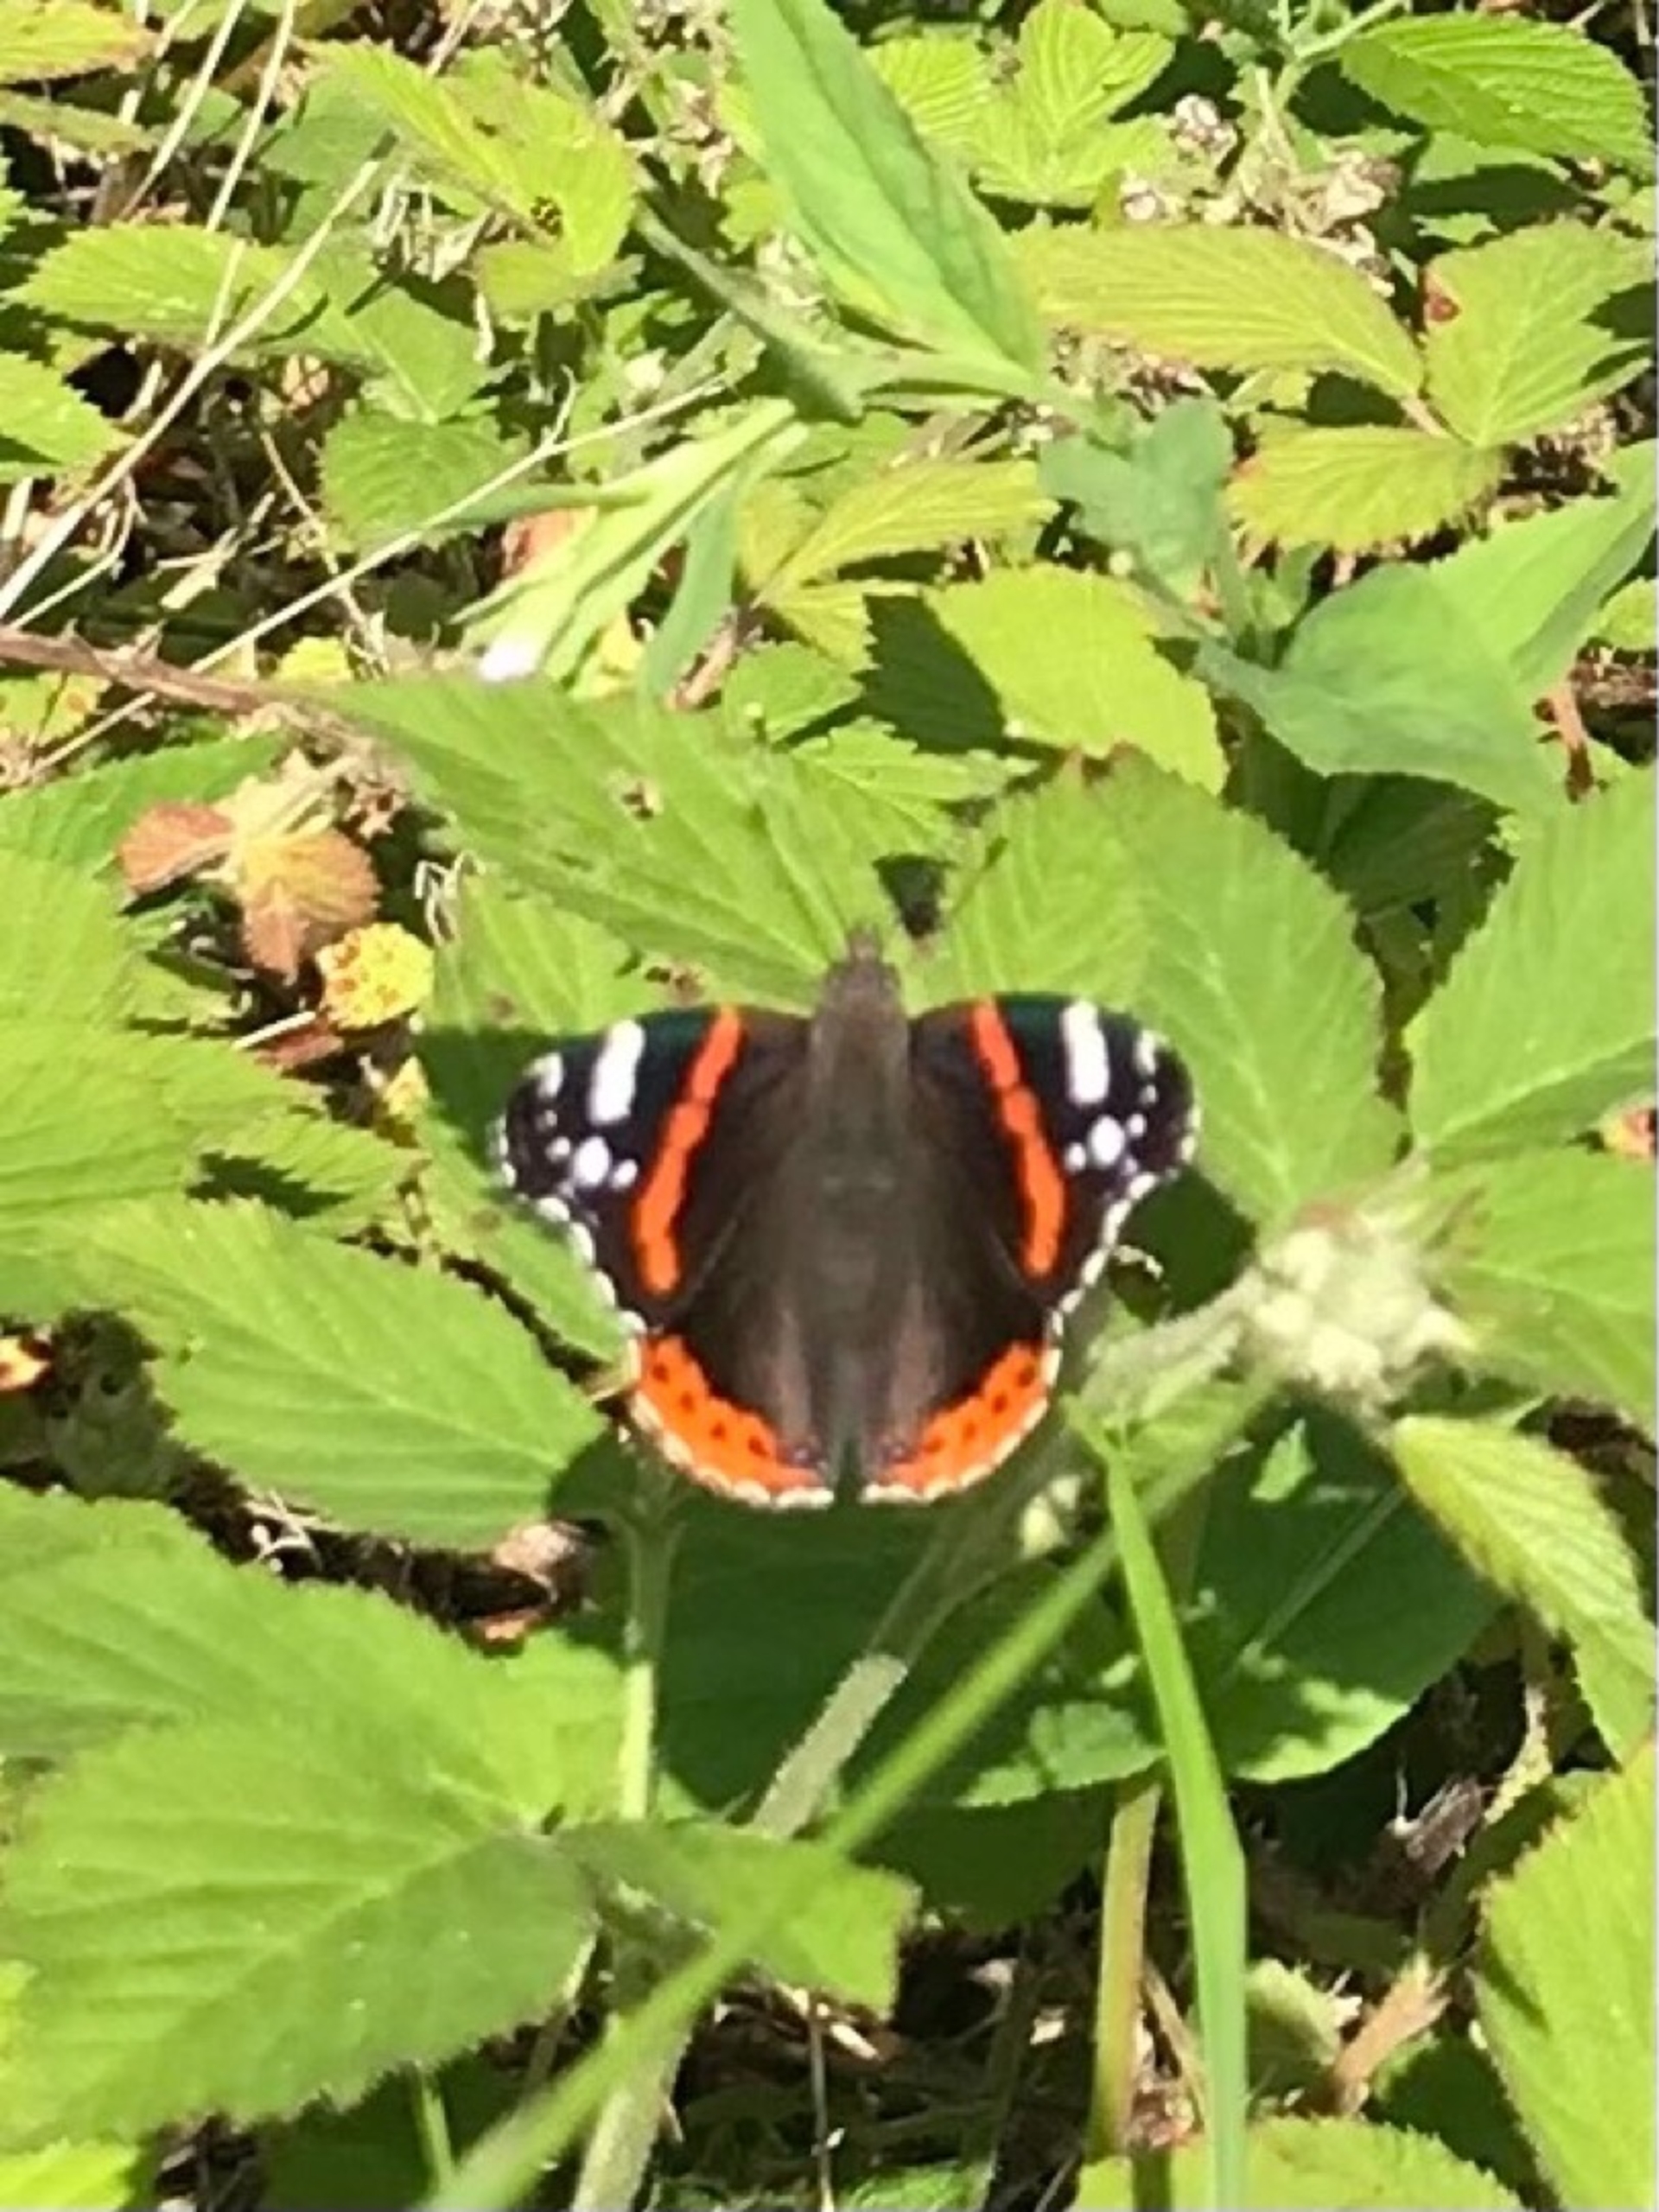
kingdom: Animalia
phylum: Arthropoda
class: Insecta
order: Lepidoptera
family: Nymphalidae
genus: Vanessa
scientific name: Vanessa atalanta
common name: Admiral
